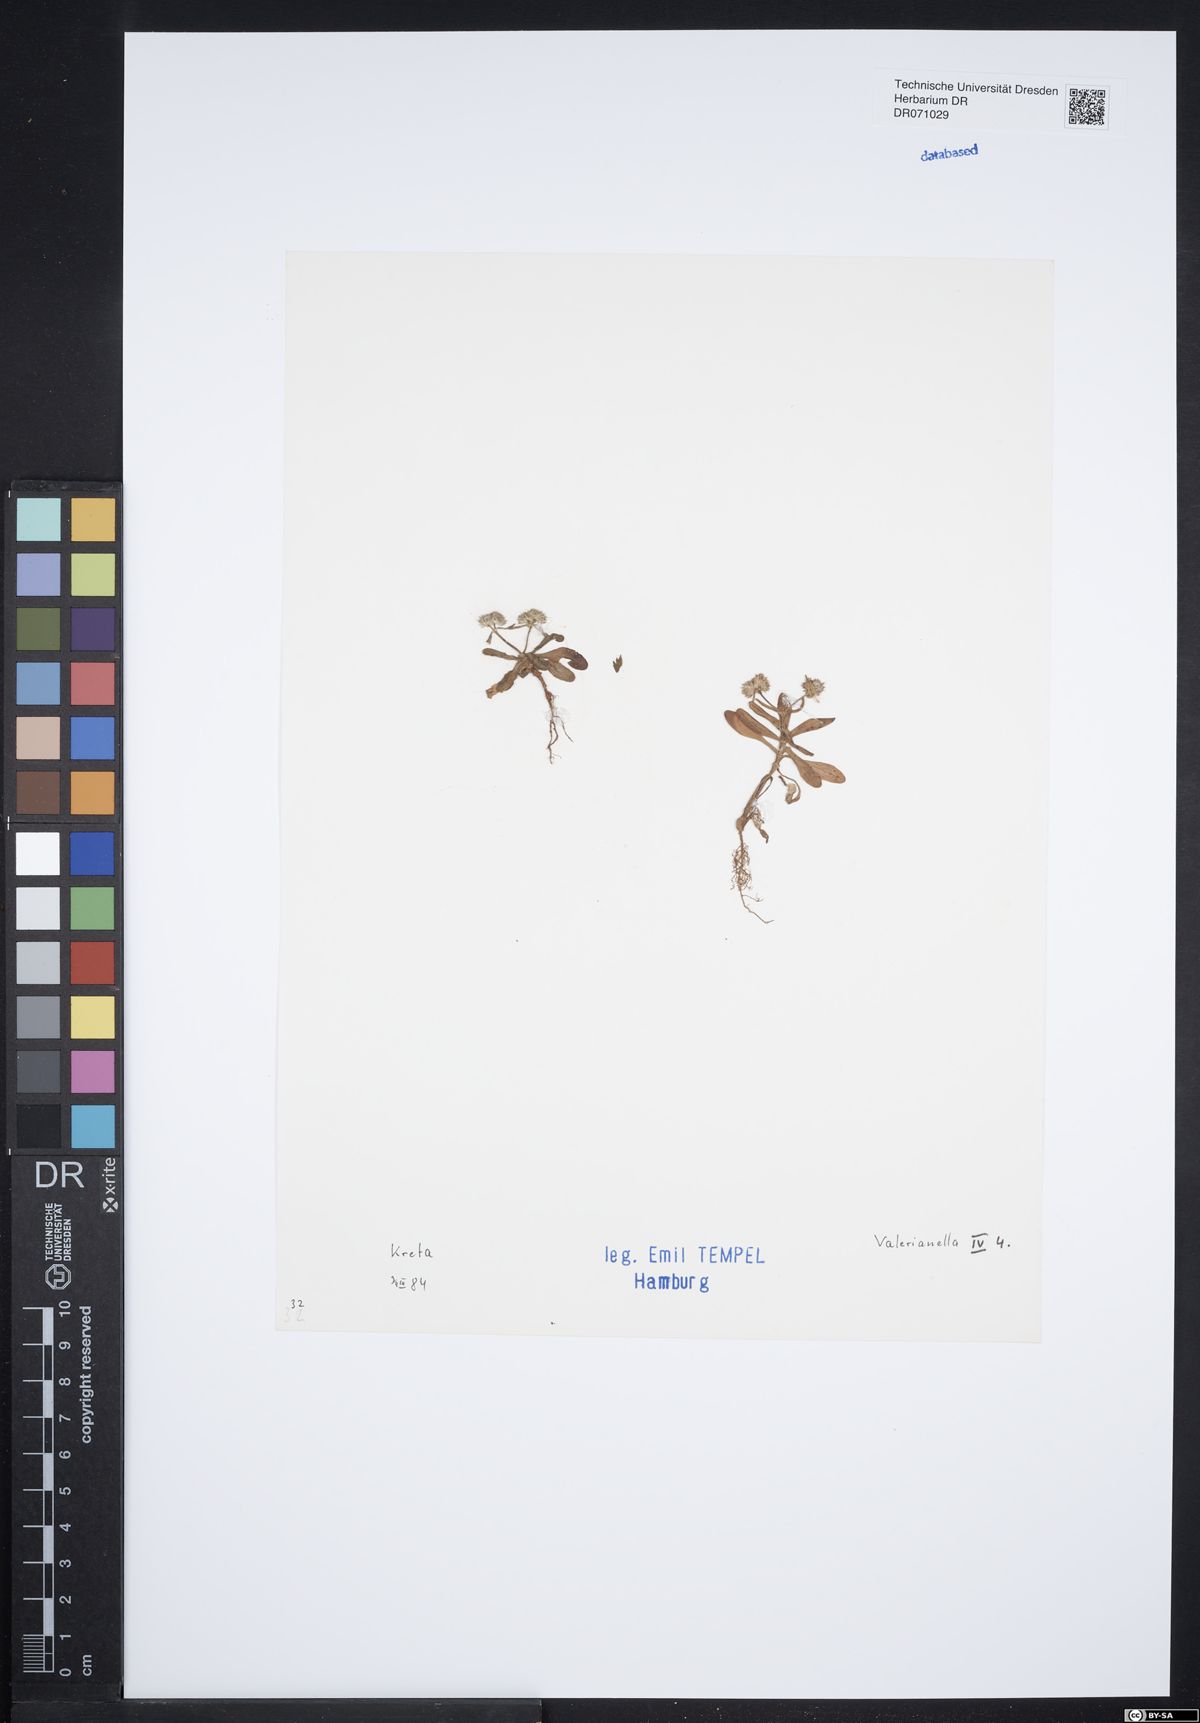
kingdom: Plantae
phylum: Tracheophyta
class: Magnoliopsida
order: Dipsacales
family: Caprifoliaceae
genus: Valerianella
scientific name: Valerianella
